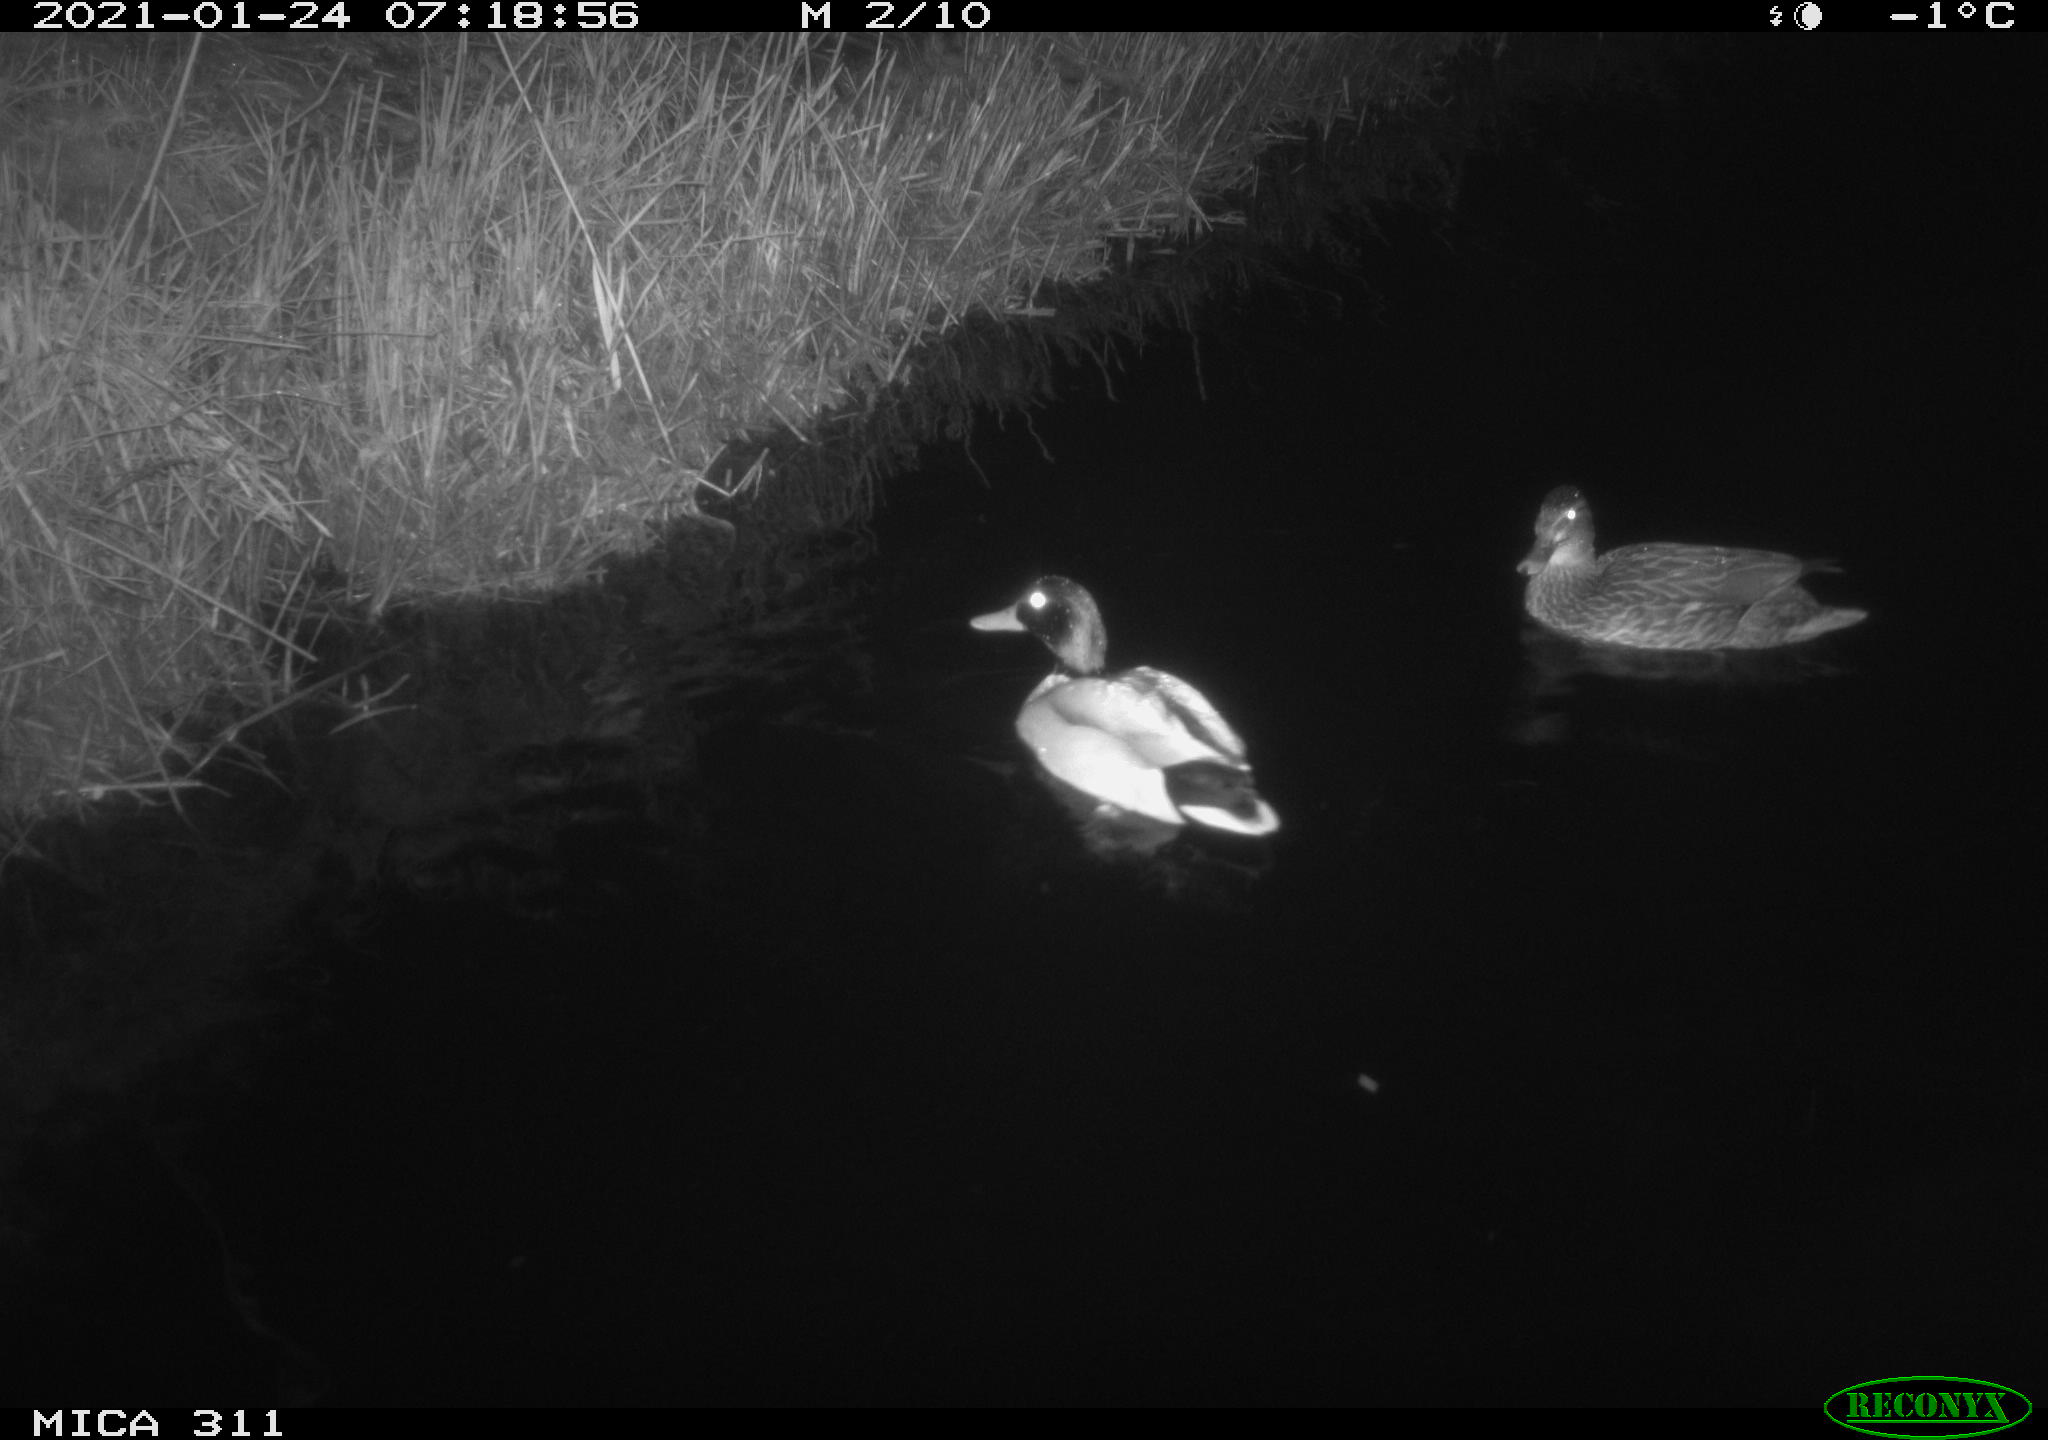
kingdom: Animalia
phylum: Chordata
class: Aves
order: Anseriformes
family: Anatidae
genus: Anas
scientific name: Anas
